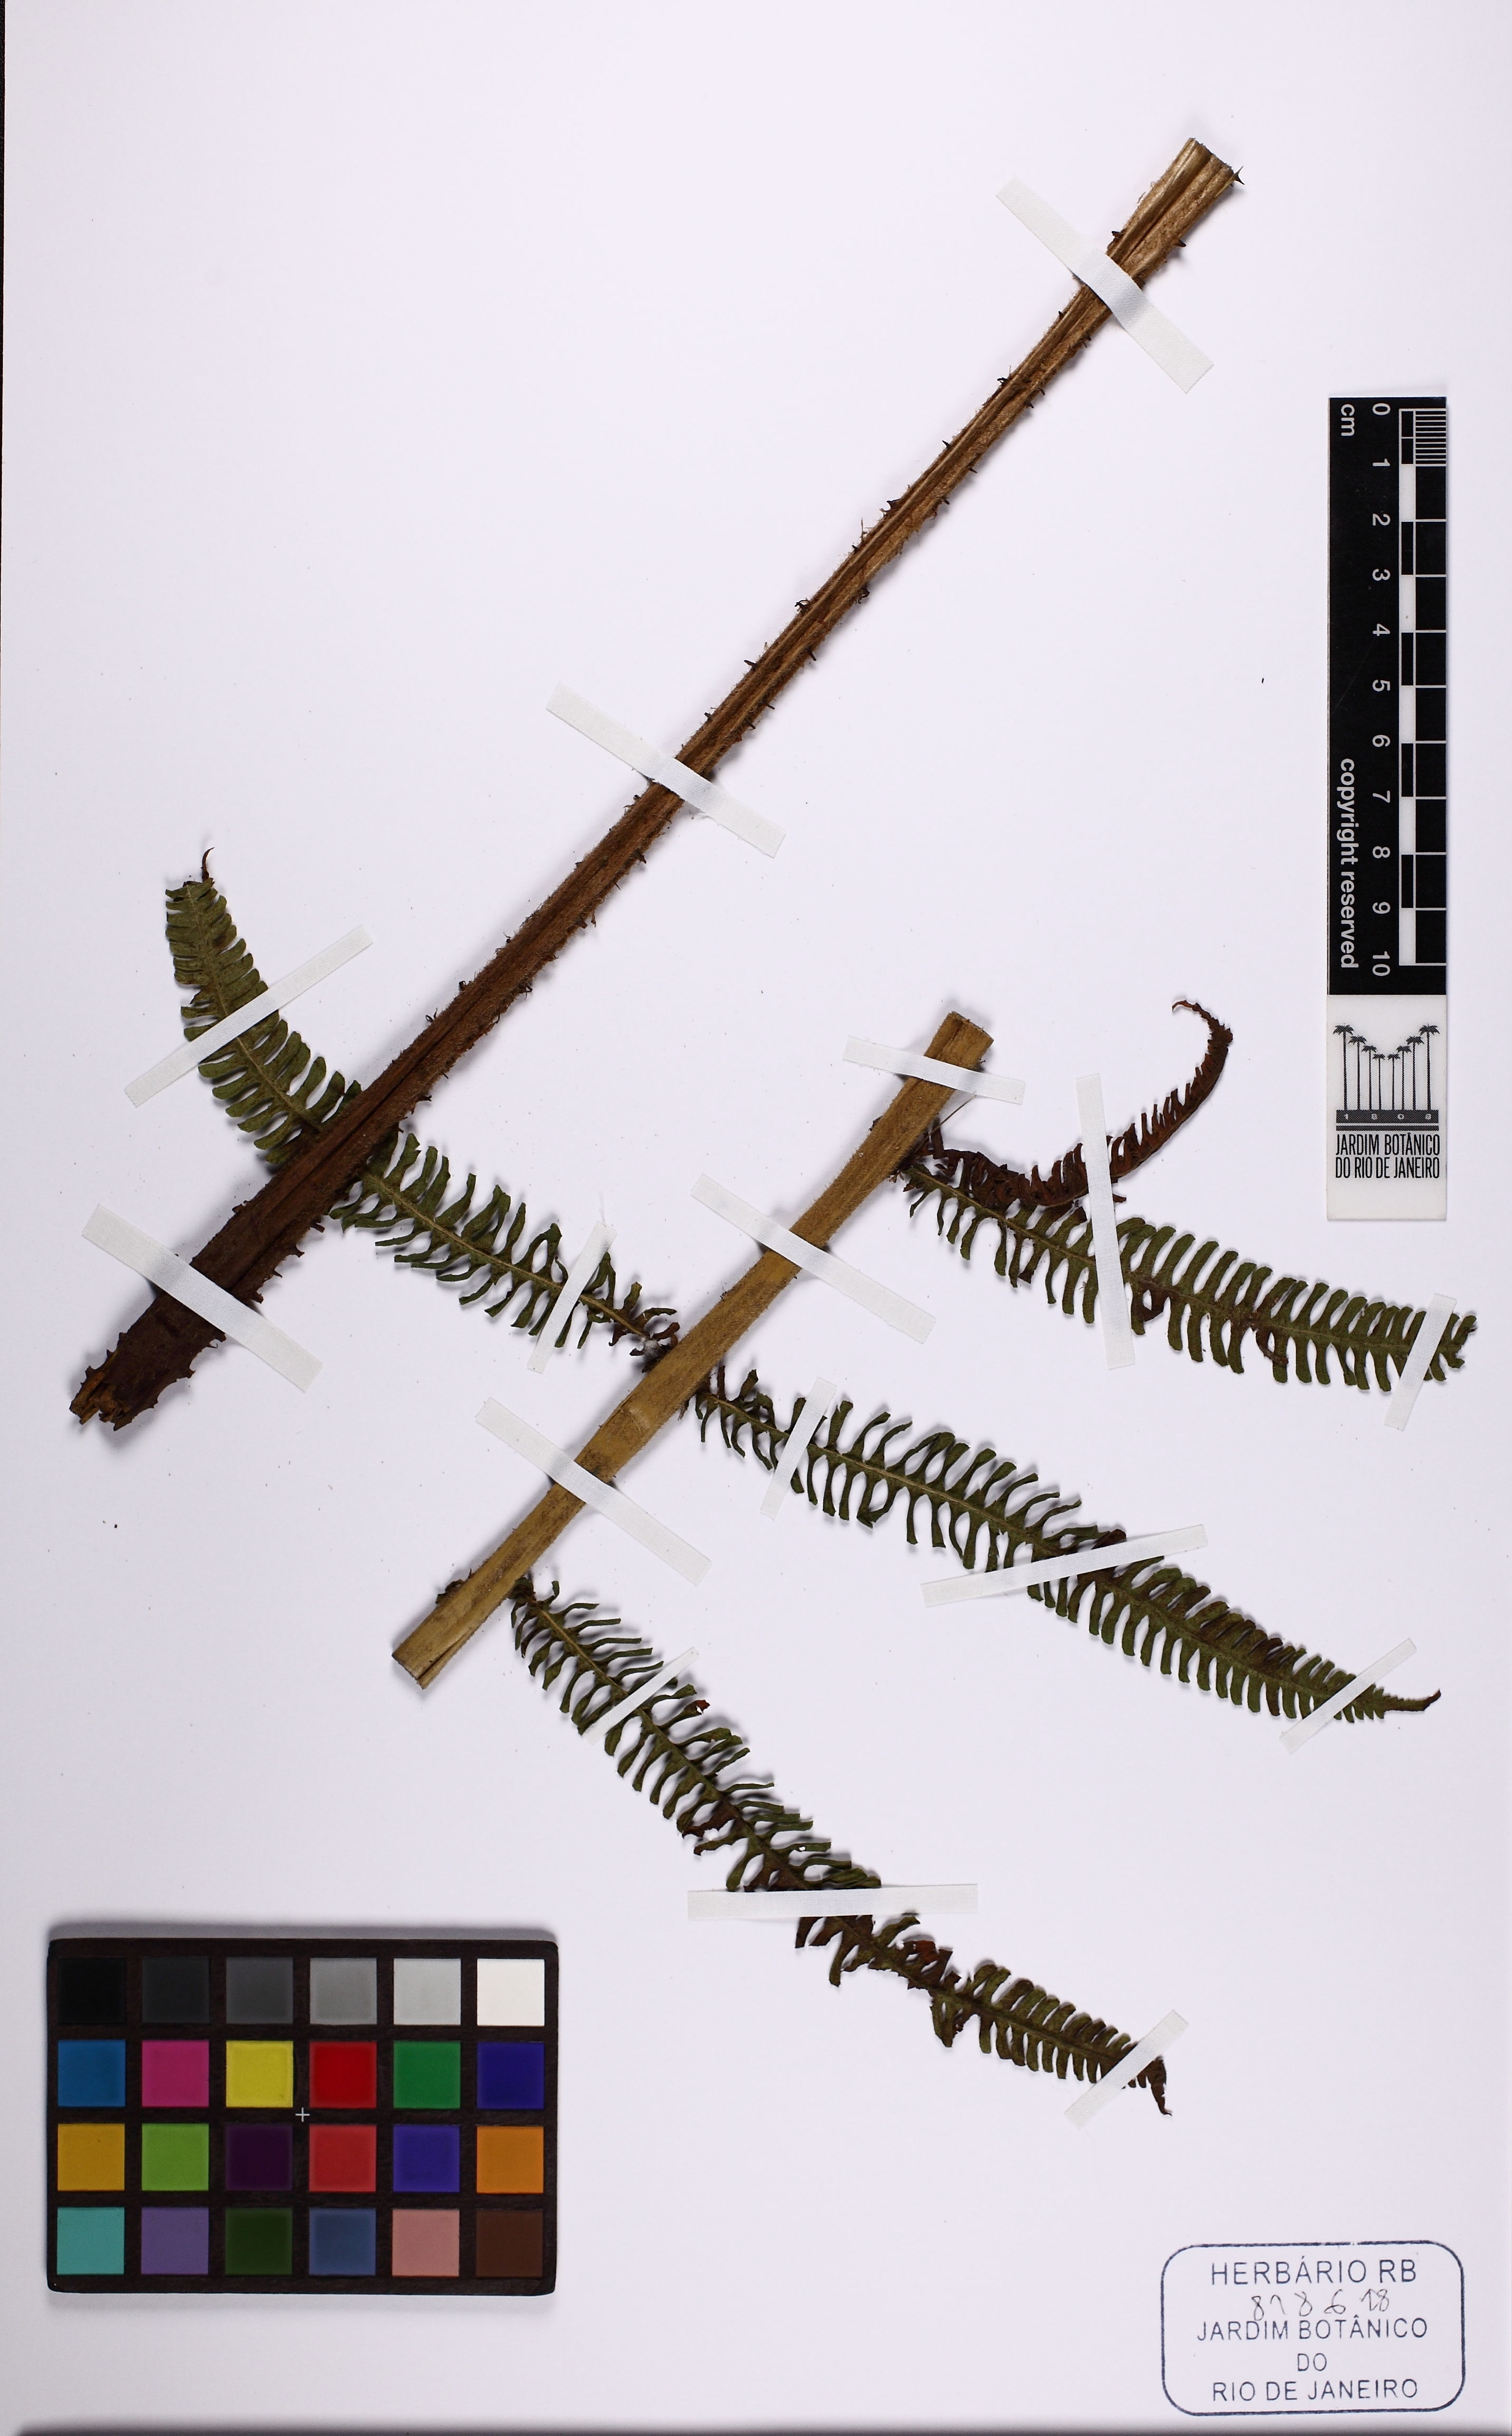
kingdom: Plantae
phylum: Tracheophyta
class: Polypodiopsida
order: Polypodiales
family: Thelypteridaceae
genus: Steiropteris
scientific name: Steiropteris decussata
